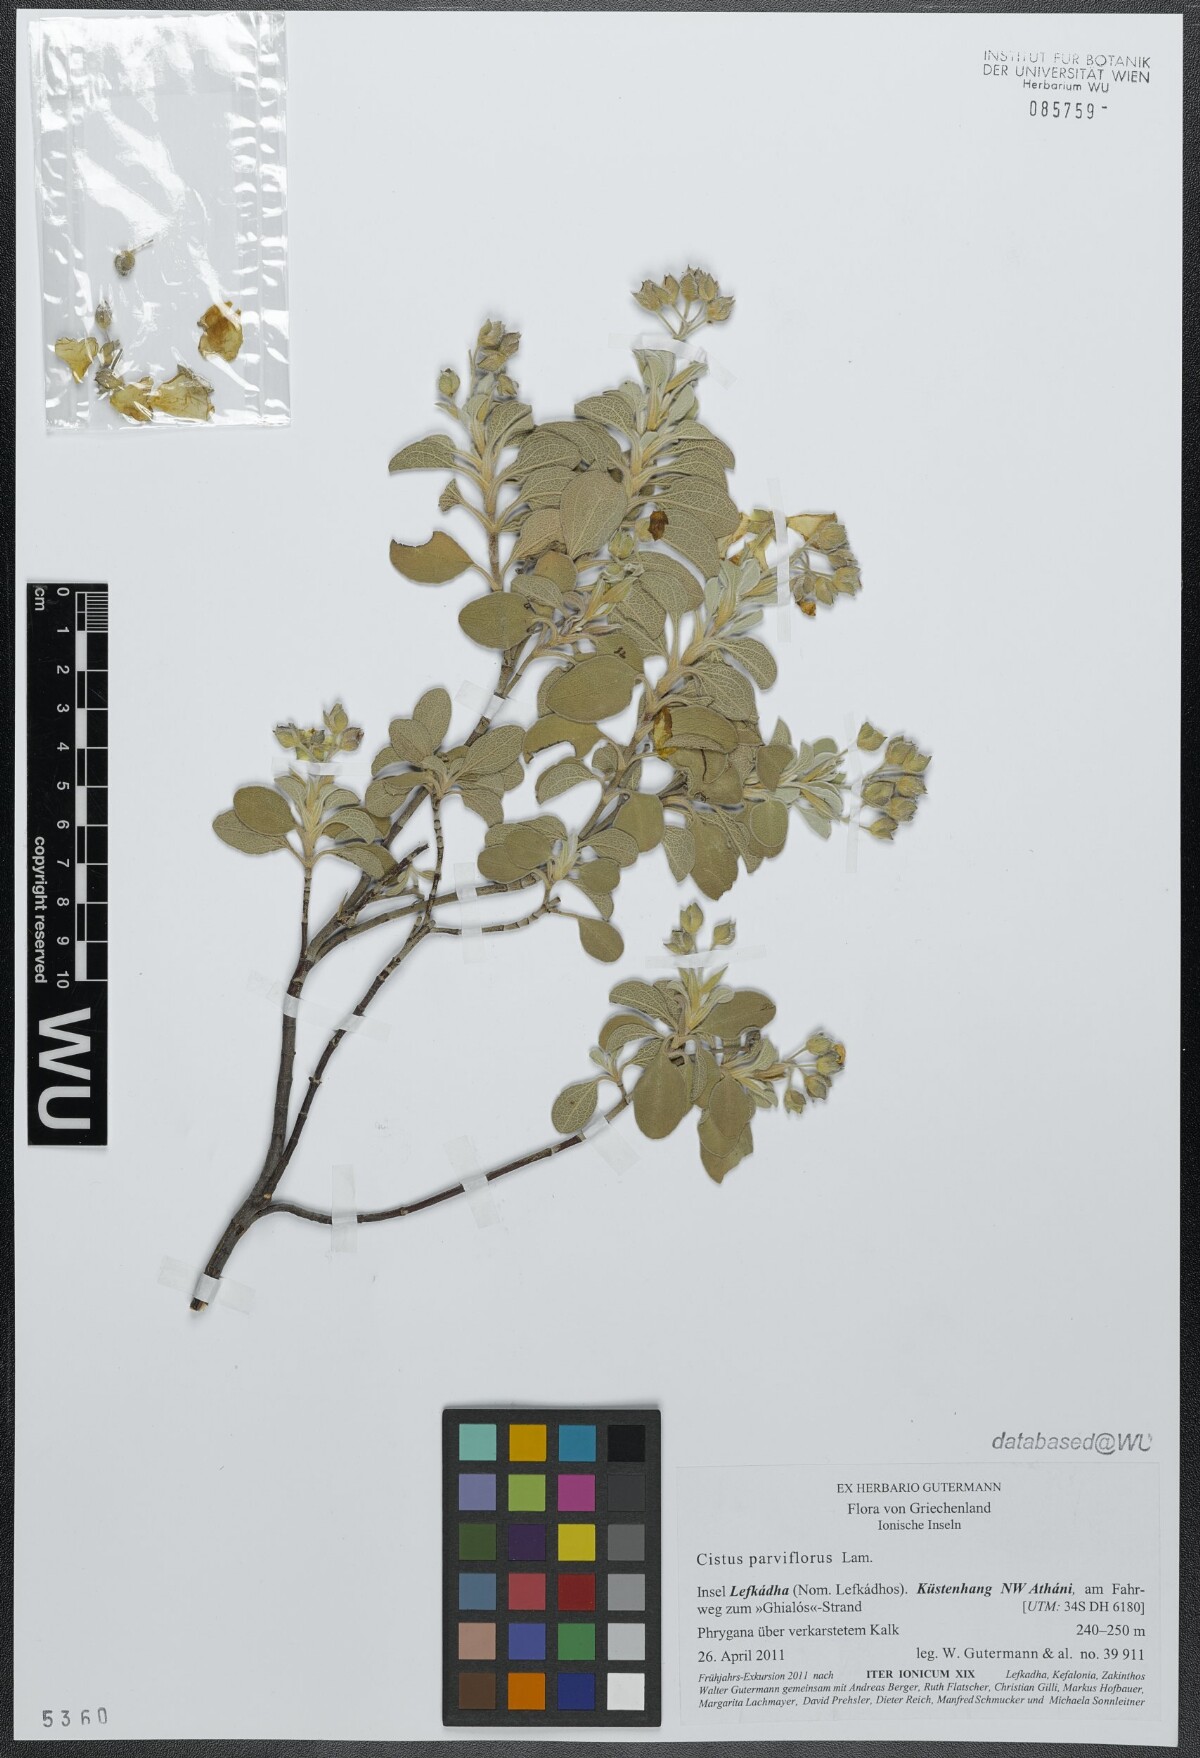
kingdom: Plantae
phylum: Tracheophyta
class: Magnoliopsida
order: Malvales
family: Cistaceae
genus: Cistus
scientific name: Cistus parviflorus
